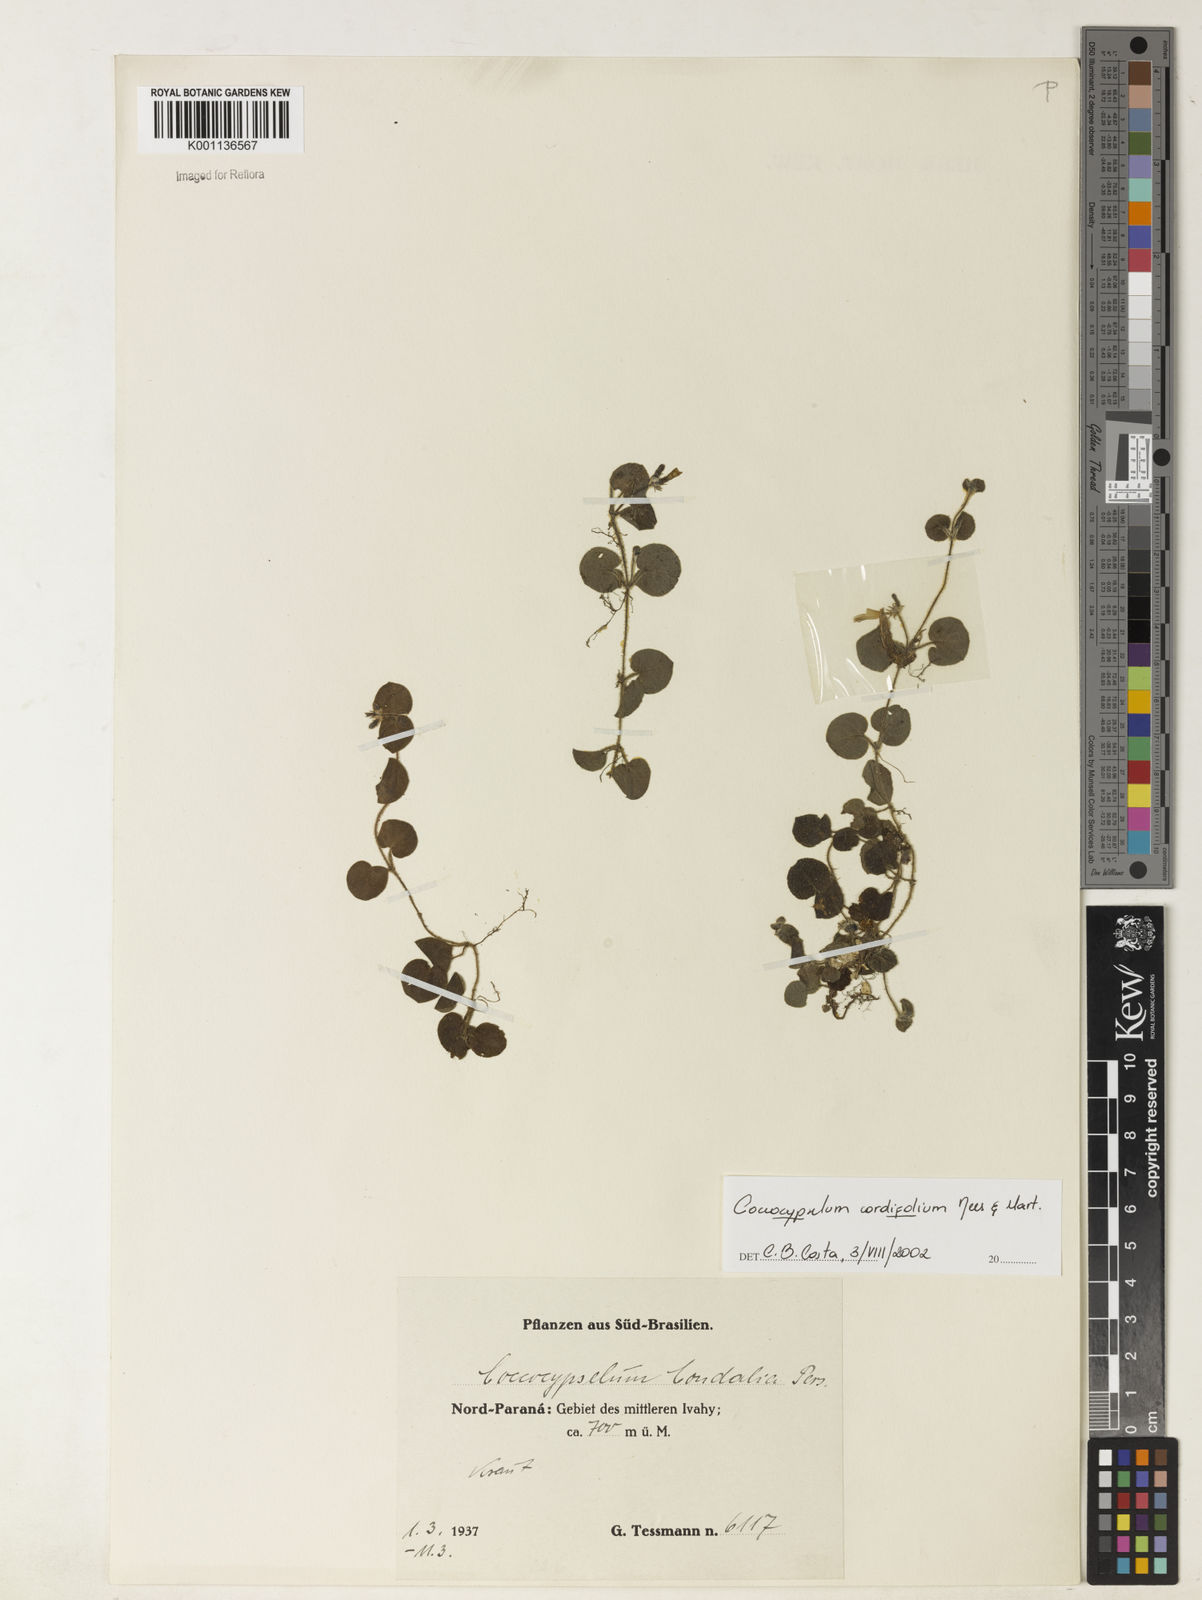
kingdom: Plantae
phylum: Tracheophyta
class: Magnoliopsida
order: Gentianales
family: Rubiaceae
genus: Coccocypselum
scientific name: Coccocypselum cordifolium
